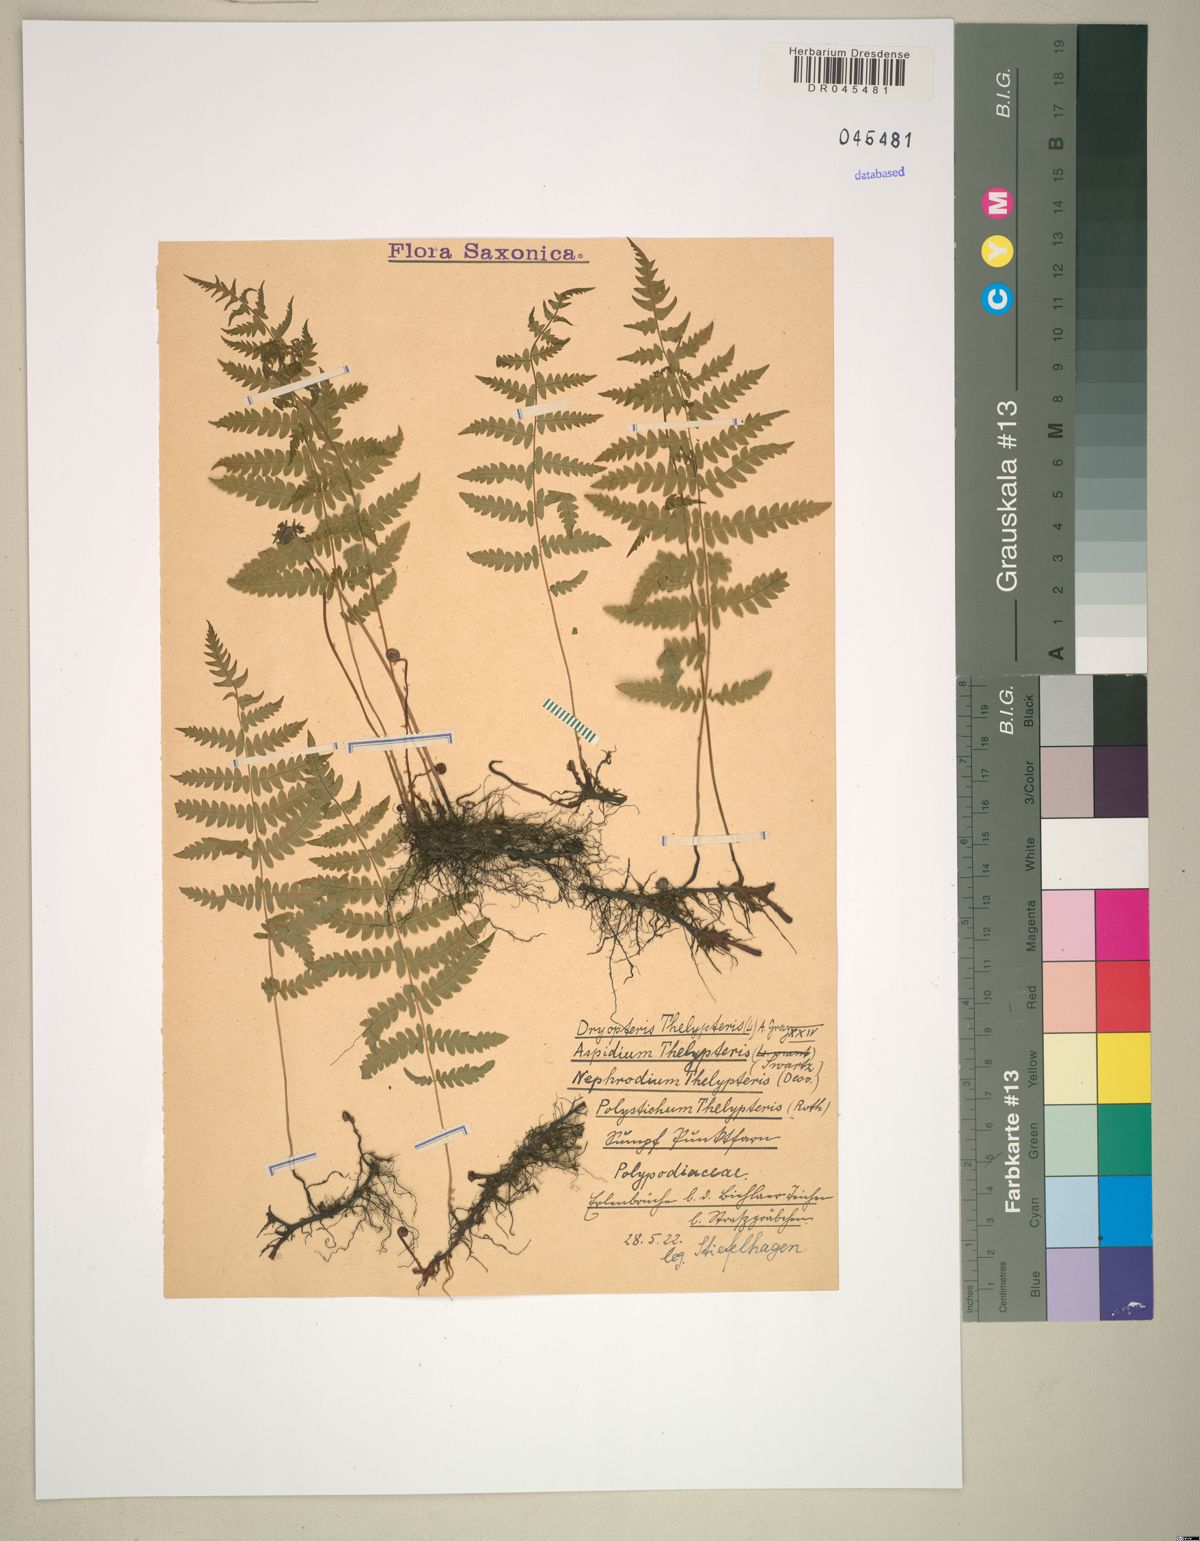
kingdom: Plantae
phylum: Tracheophyta
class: Polypodiopsida
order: Polypodiales
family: Thelypteridaceae
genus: Thelypteris
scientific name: Thelypteris palustris
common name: Marsh fern
